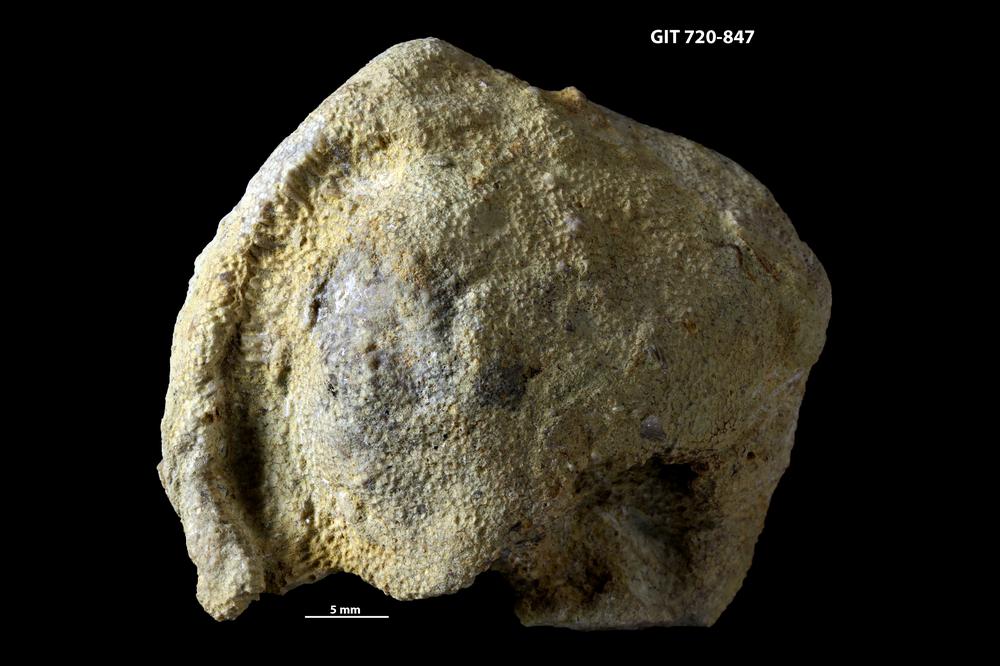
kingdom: Animalia
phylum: Bryozoa
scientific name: Bryozoa
